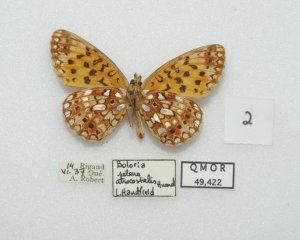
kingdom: Animalia
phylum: Arthropoda
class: Insecta
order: Lepidoptera
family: Nymphalidae
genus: Boloria
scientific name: Boloria selene
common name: Silver-bordered Fritillary
